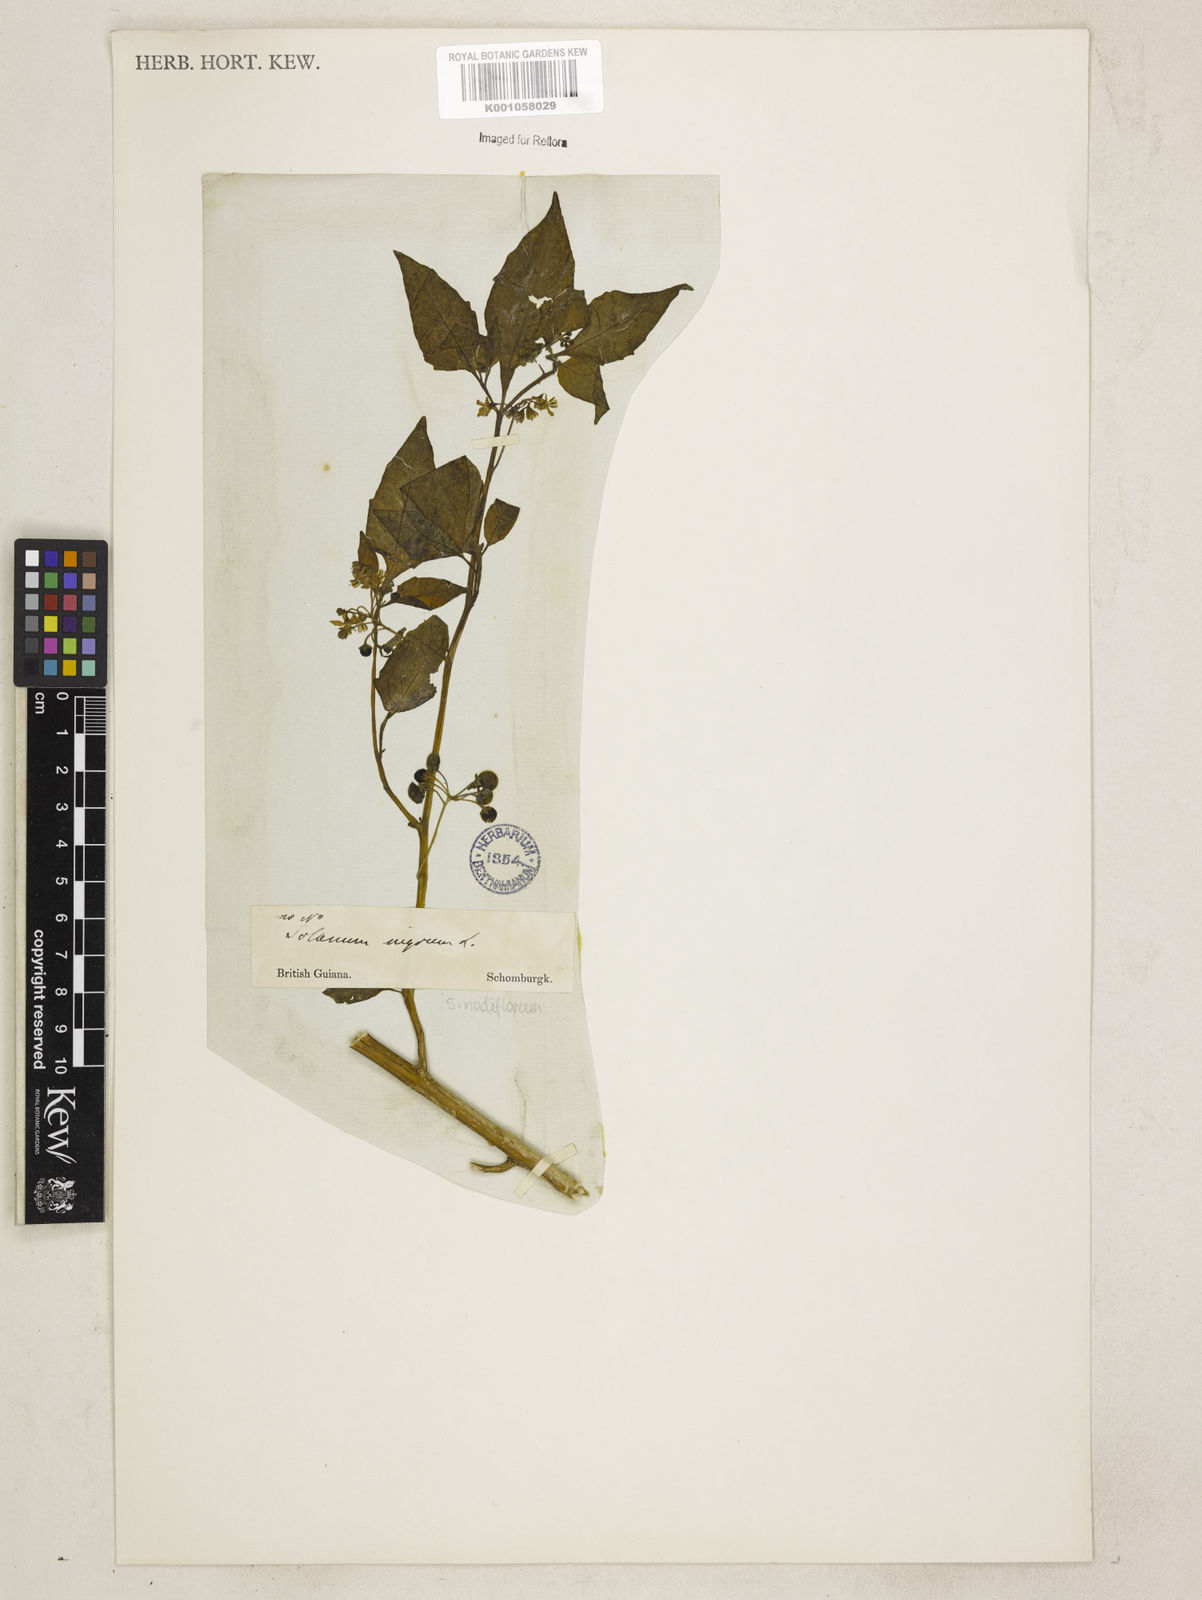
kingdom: Plantae
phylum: Tracheophyta
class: Magnoliopsida
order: Solanales
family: Solanaceae
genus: Solanum
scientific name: Solanum nigrescens
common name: Divine nightshade
